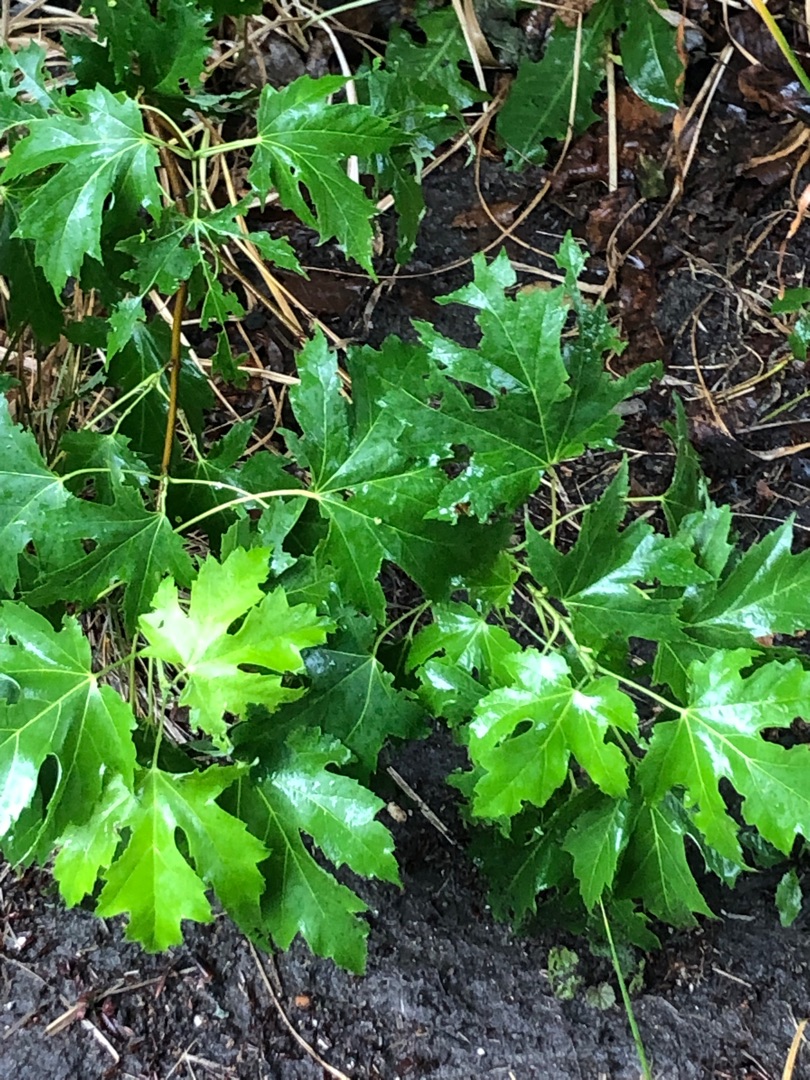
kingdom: Plantae
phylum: Tracheophyta
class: Magnoliopsida
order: Sapindales
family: Sapindaceae
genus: Acer
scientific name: Acer saccharinum
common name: Sølv-løn
